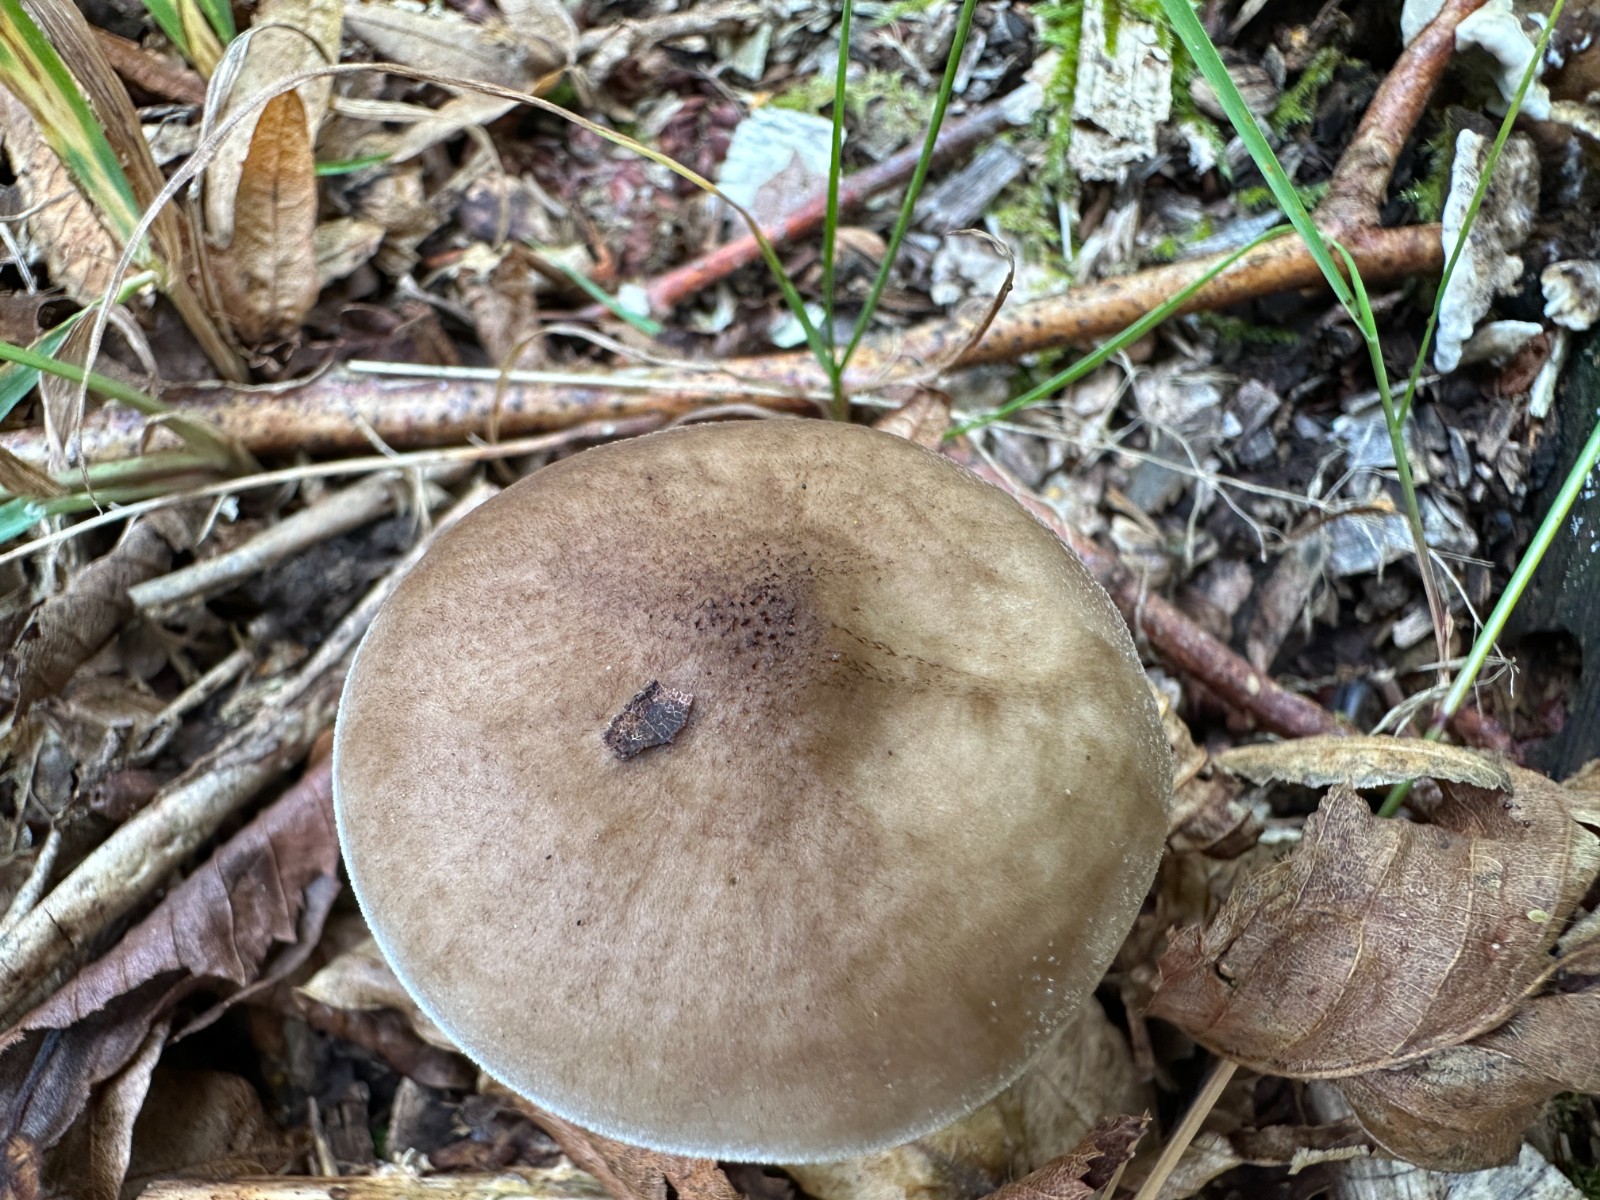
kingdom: Fungi
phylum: Basidiomycota
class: Agaricomycetes
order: Agaricales
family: Pluteaceae
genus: Pluteus
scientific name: Pluteus
